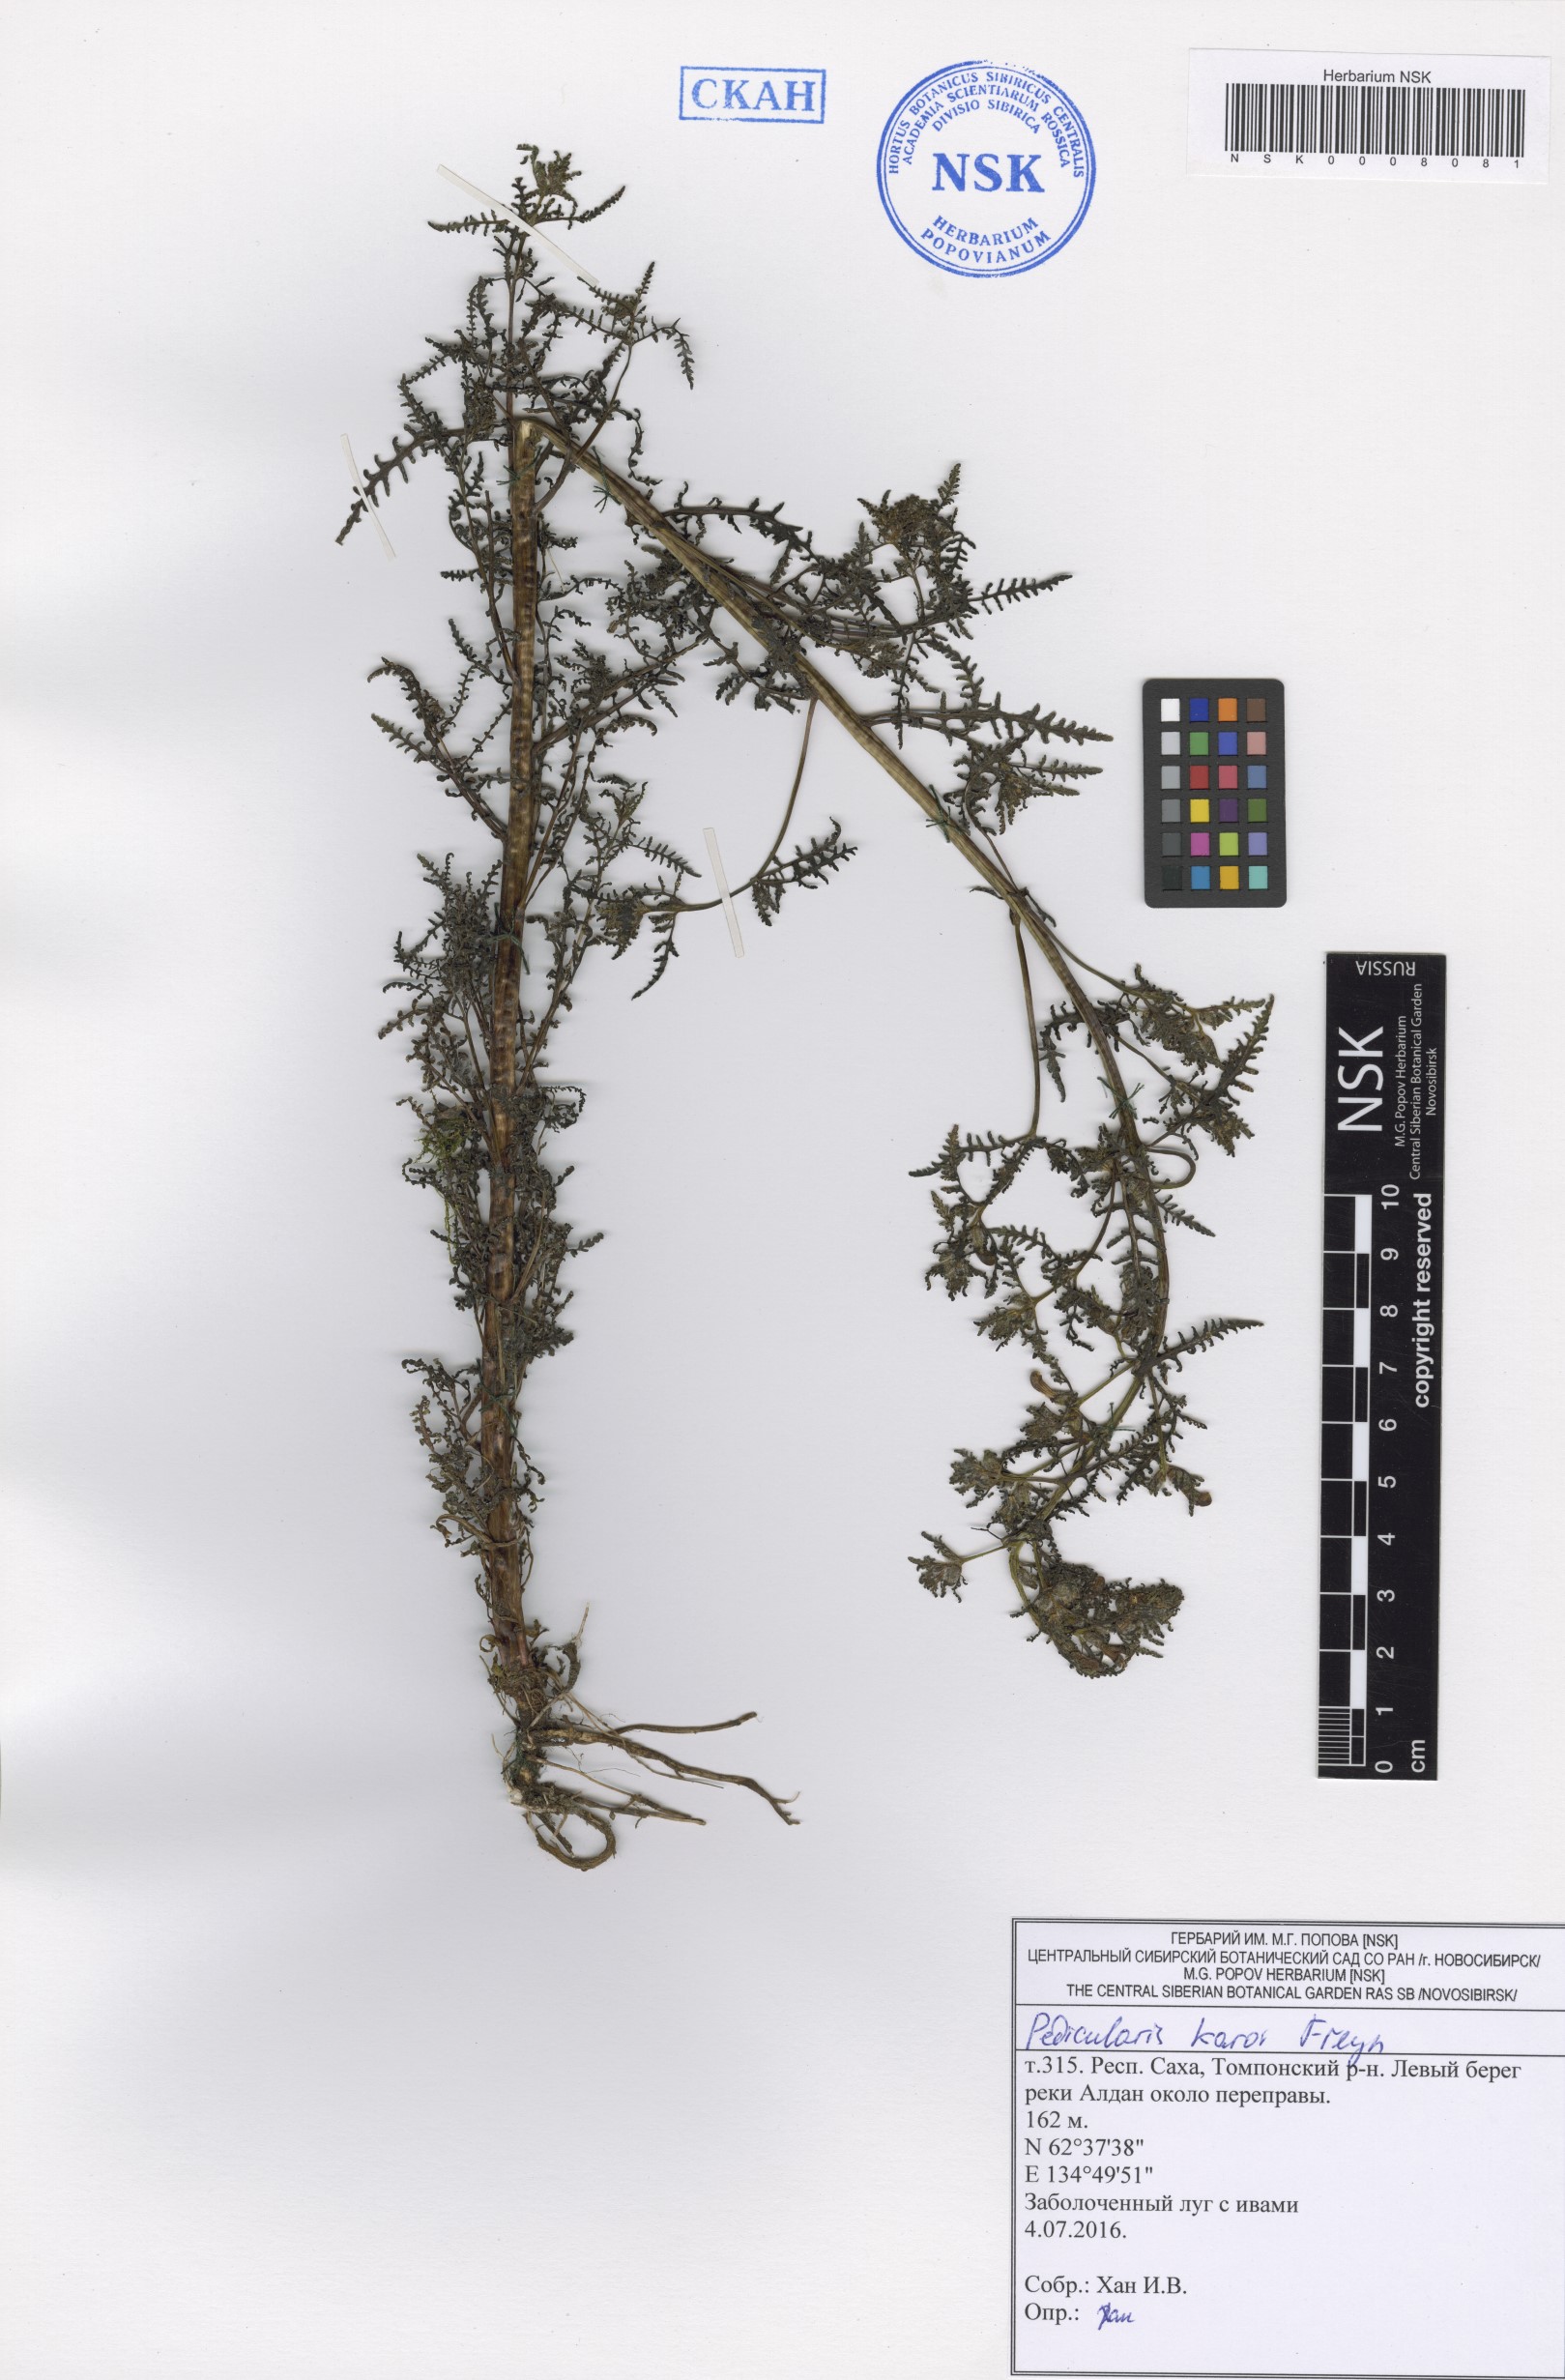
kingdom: Plantae
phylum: Tracheophyta
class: Magnoliopsida
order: Lamiales
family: Orobanchaceae
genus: Pedicularis
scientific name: Pedicularis karoi
